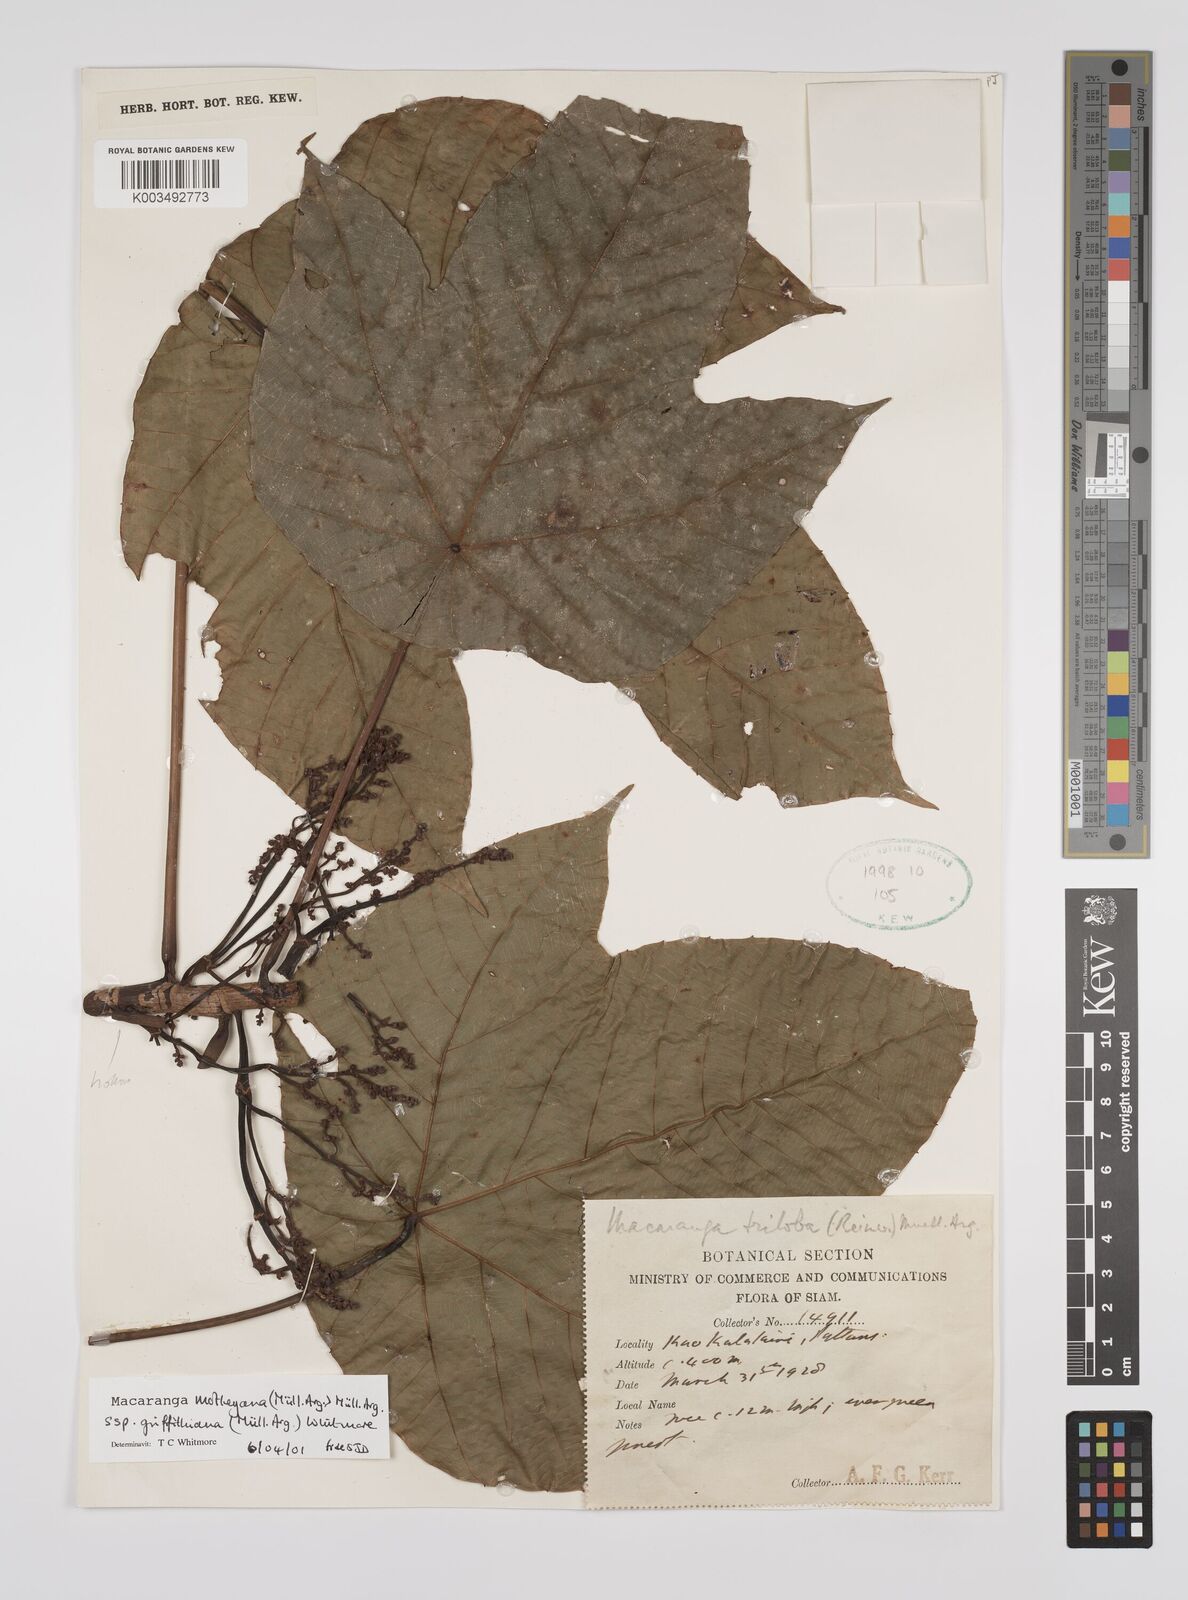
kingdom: Plantae
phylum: Tracheophyta
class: Magnoliopsida
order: Malpighiales
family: Euphorbiaceae
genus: Macaranga
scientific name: Macaranga griffithiana
